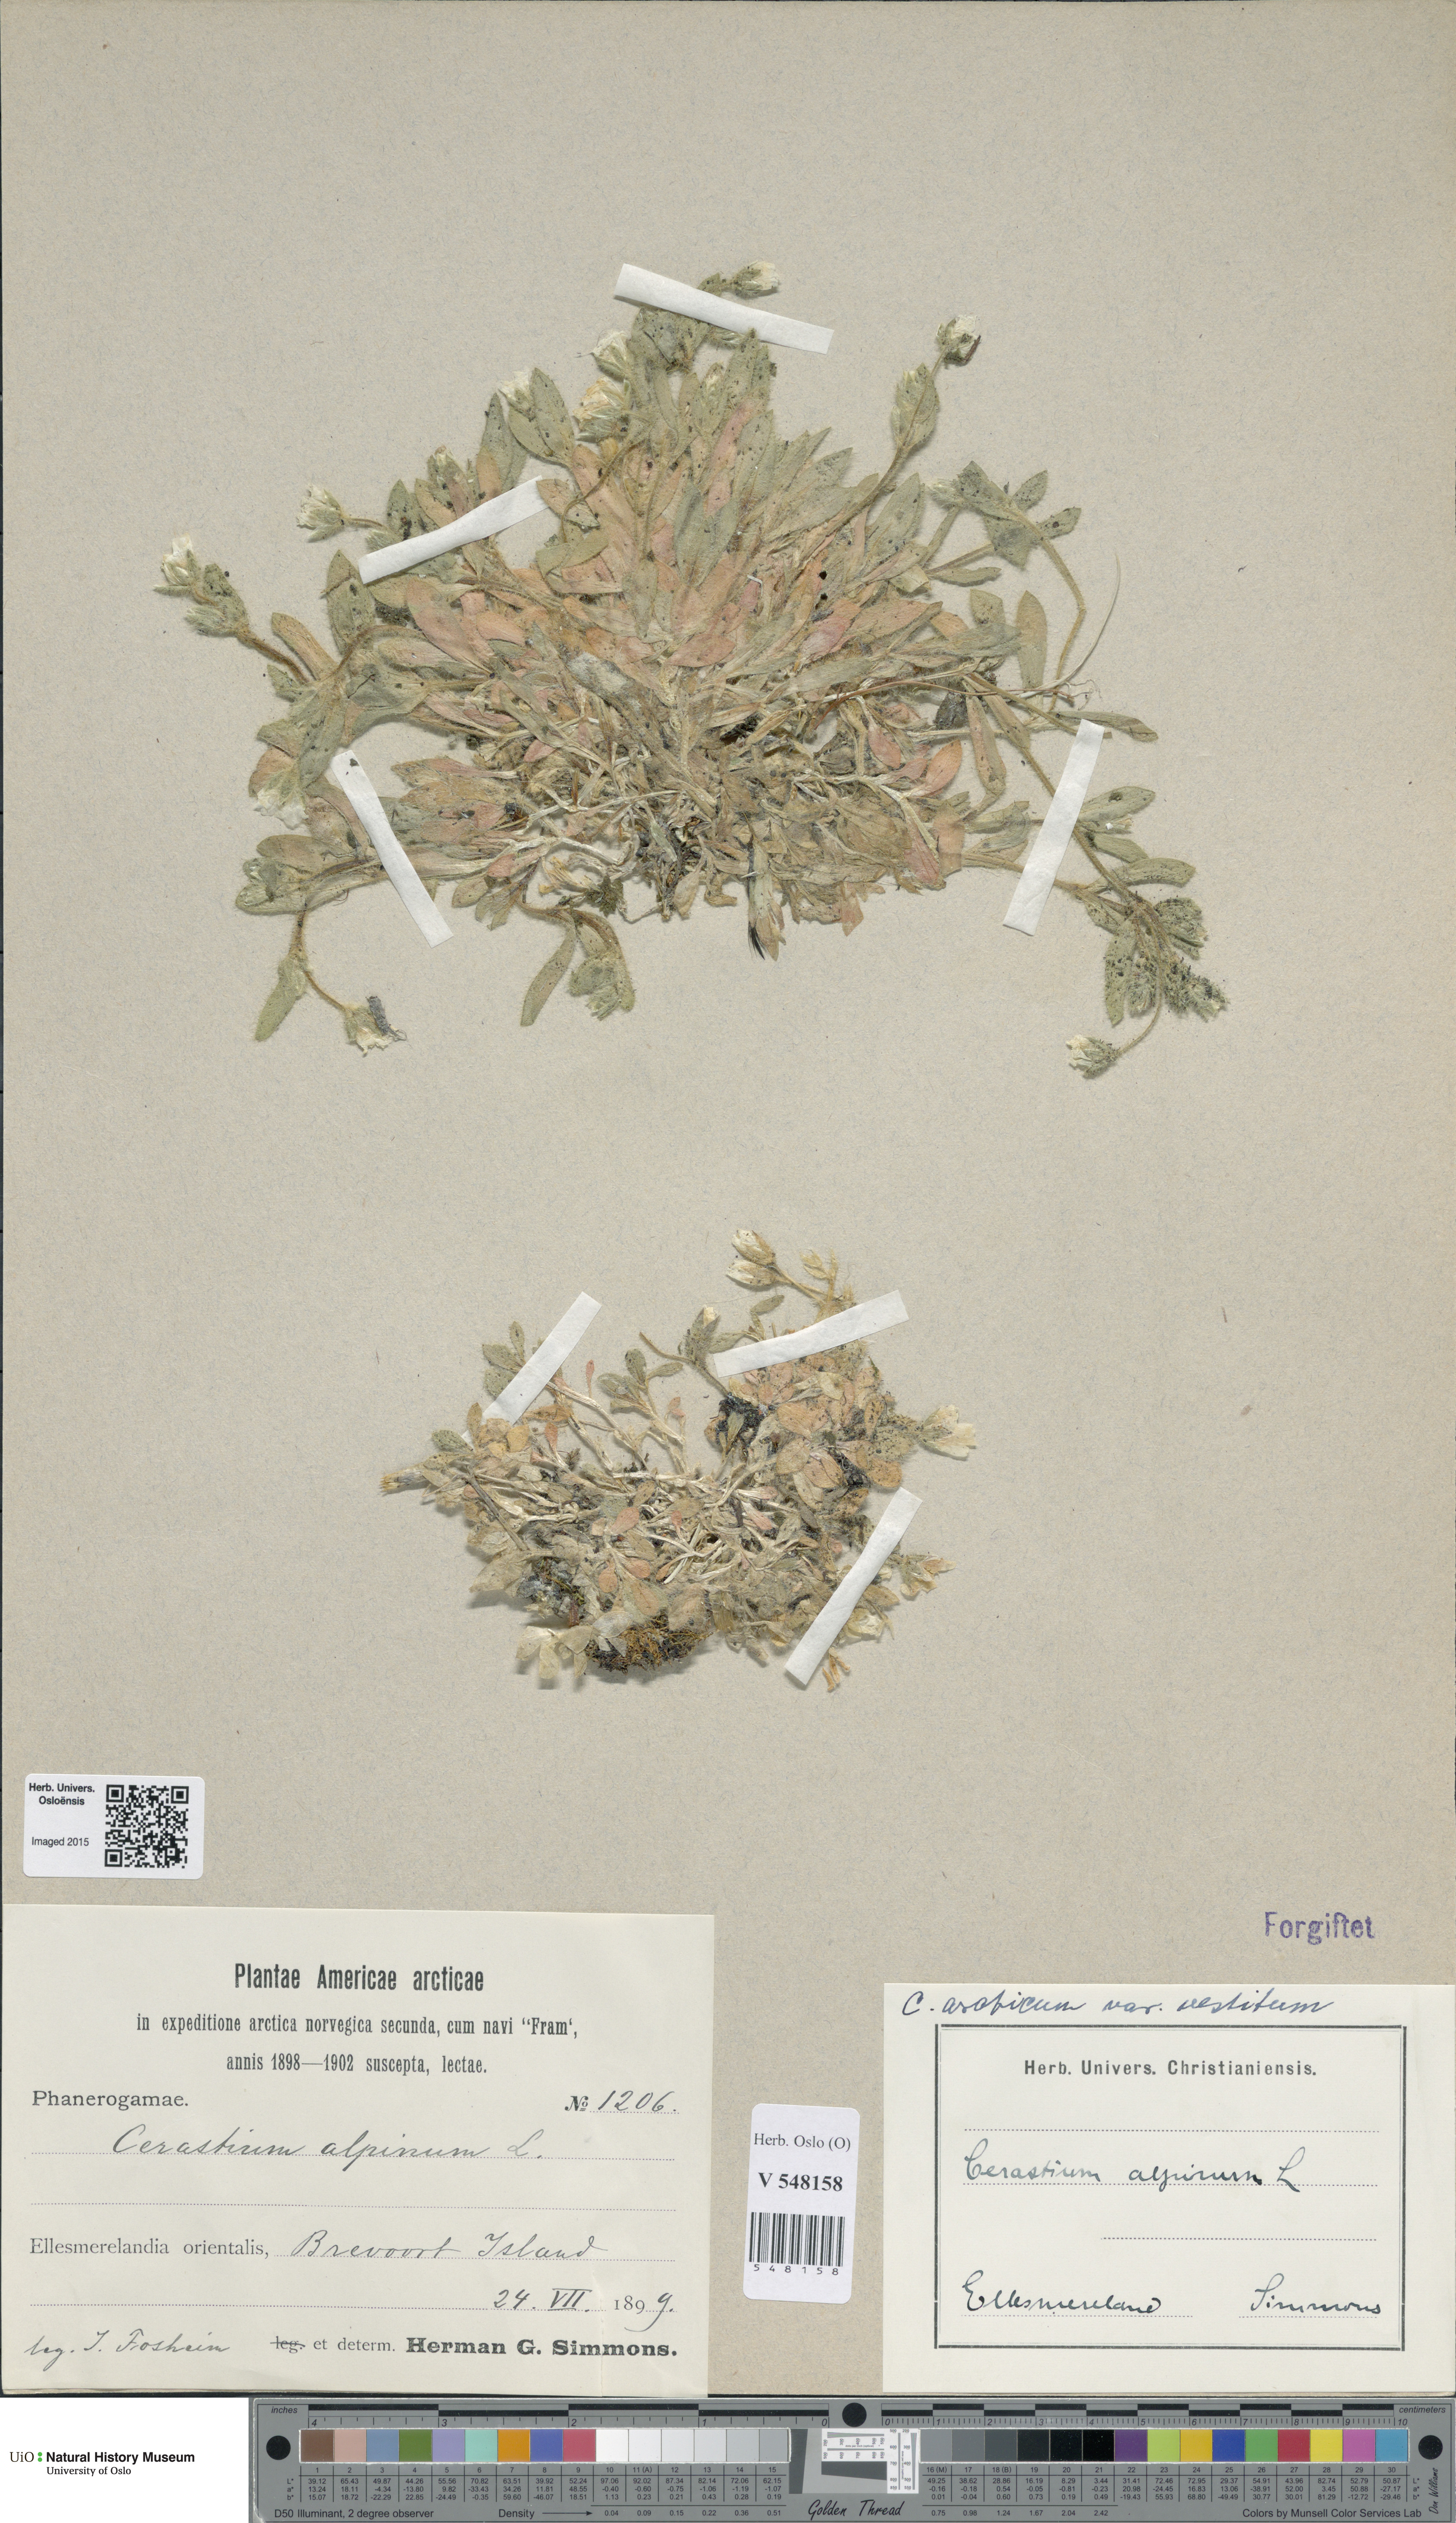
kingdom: Plantae
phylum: Tracheophyta
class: Magnoliopsida
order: Lamiales
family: Plantaginaceae
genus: Plantago
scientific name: Plantago media
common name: Hoary plantain
